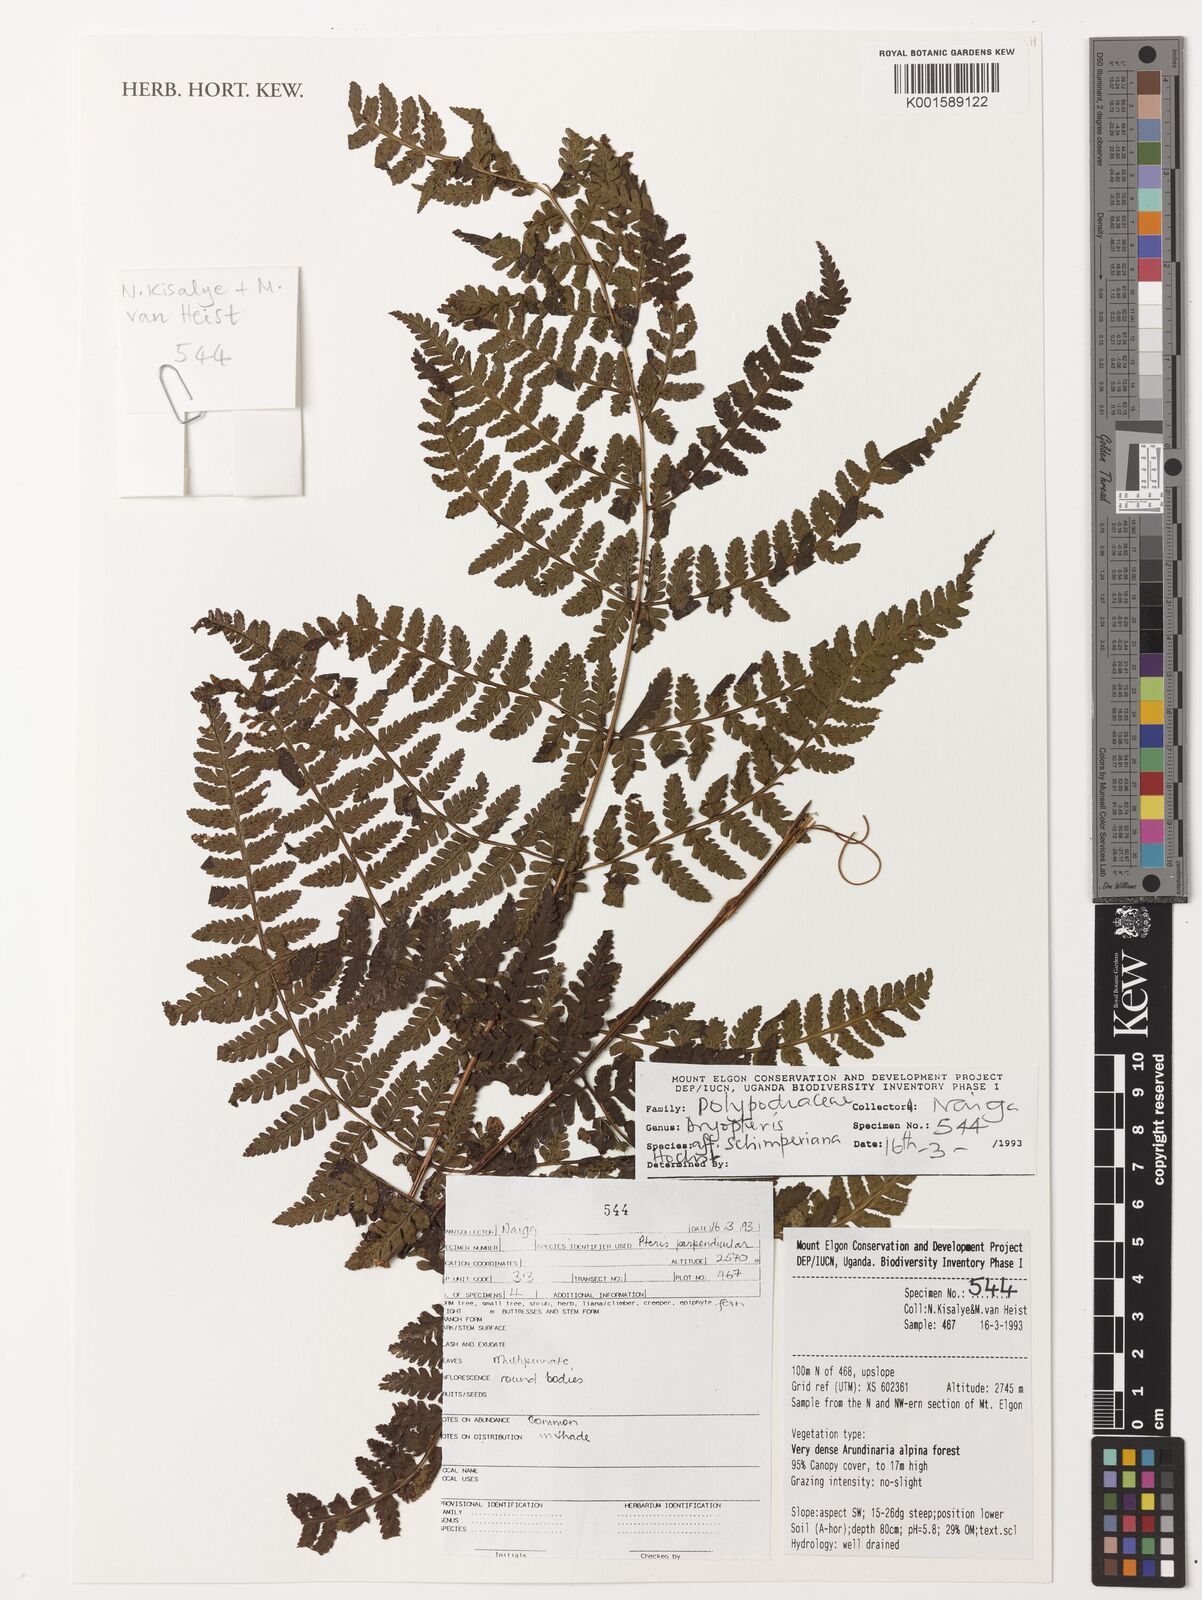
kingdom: Plantae
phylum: Tracheophyta
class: Polypodiopsida
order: Polypodiales
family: Dryopteridaceae
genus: Dryopteris
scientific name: Dryopteris schimperiana
